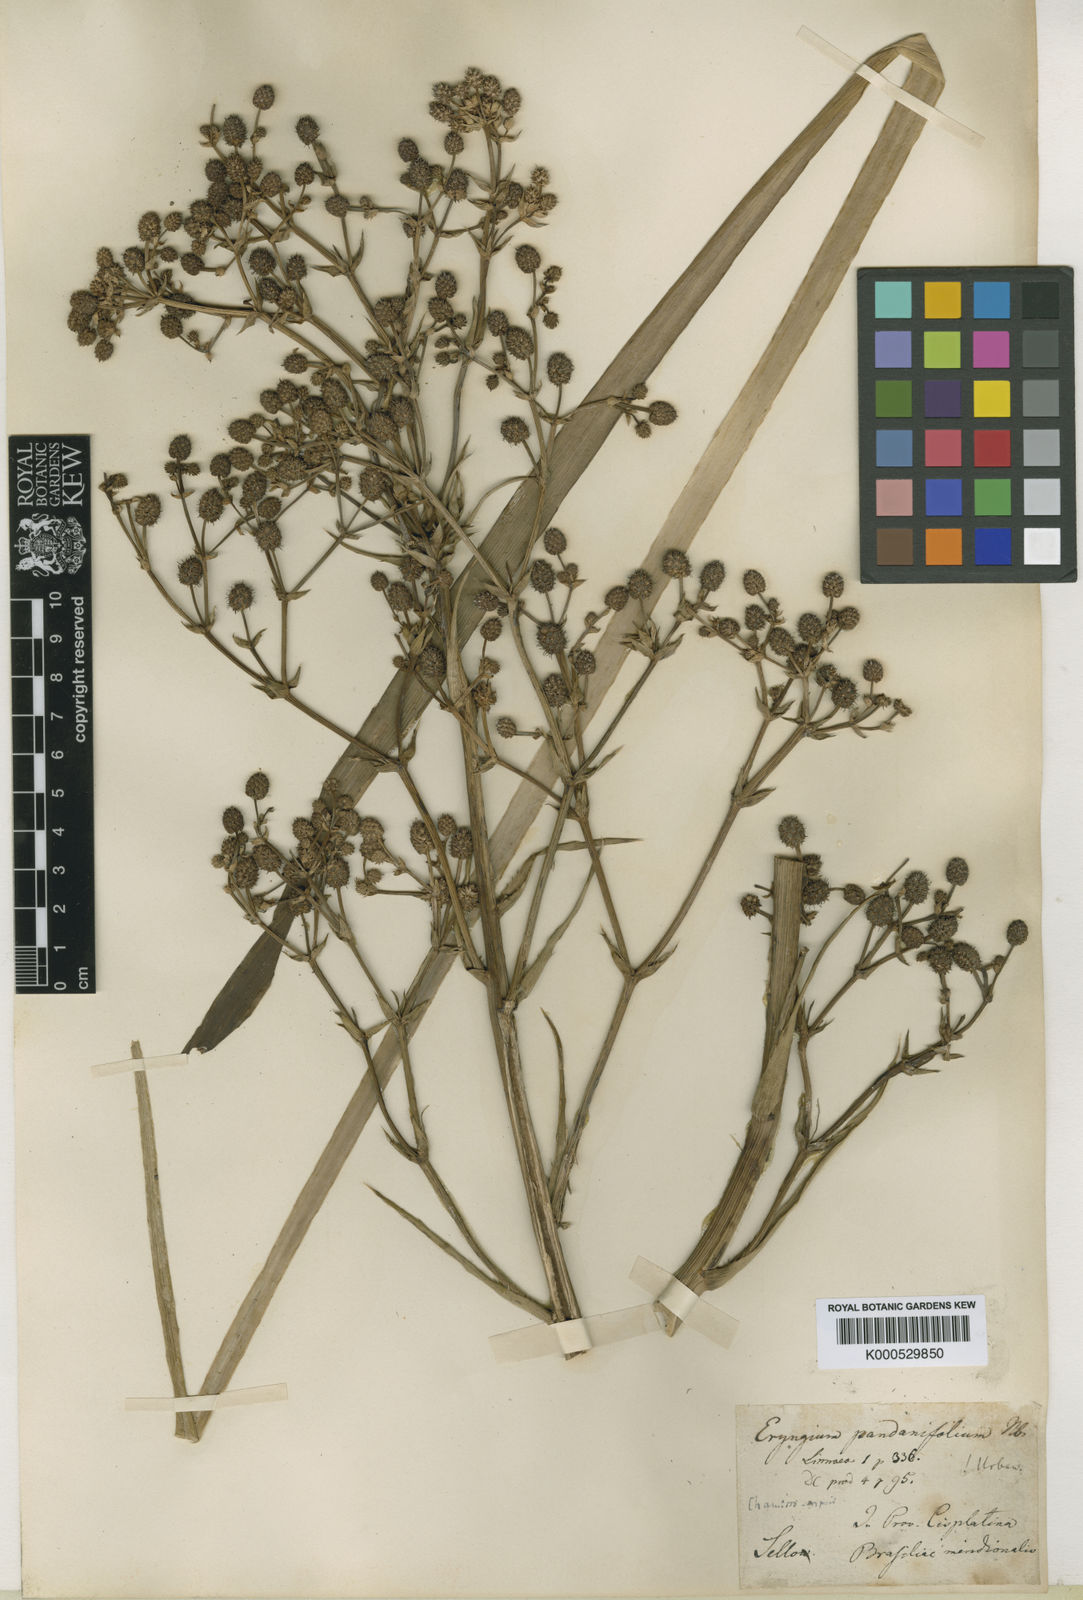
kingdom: Plantae
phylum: Tracheophyta
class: Magnoliopsida
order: Apiales
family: Apiaceae
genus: Eryngium
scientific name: Eryngium pandanifolium
